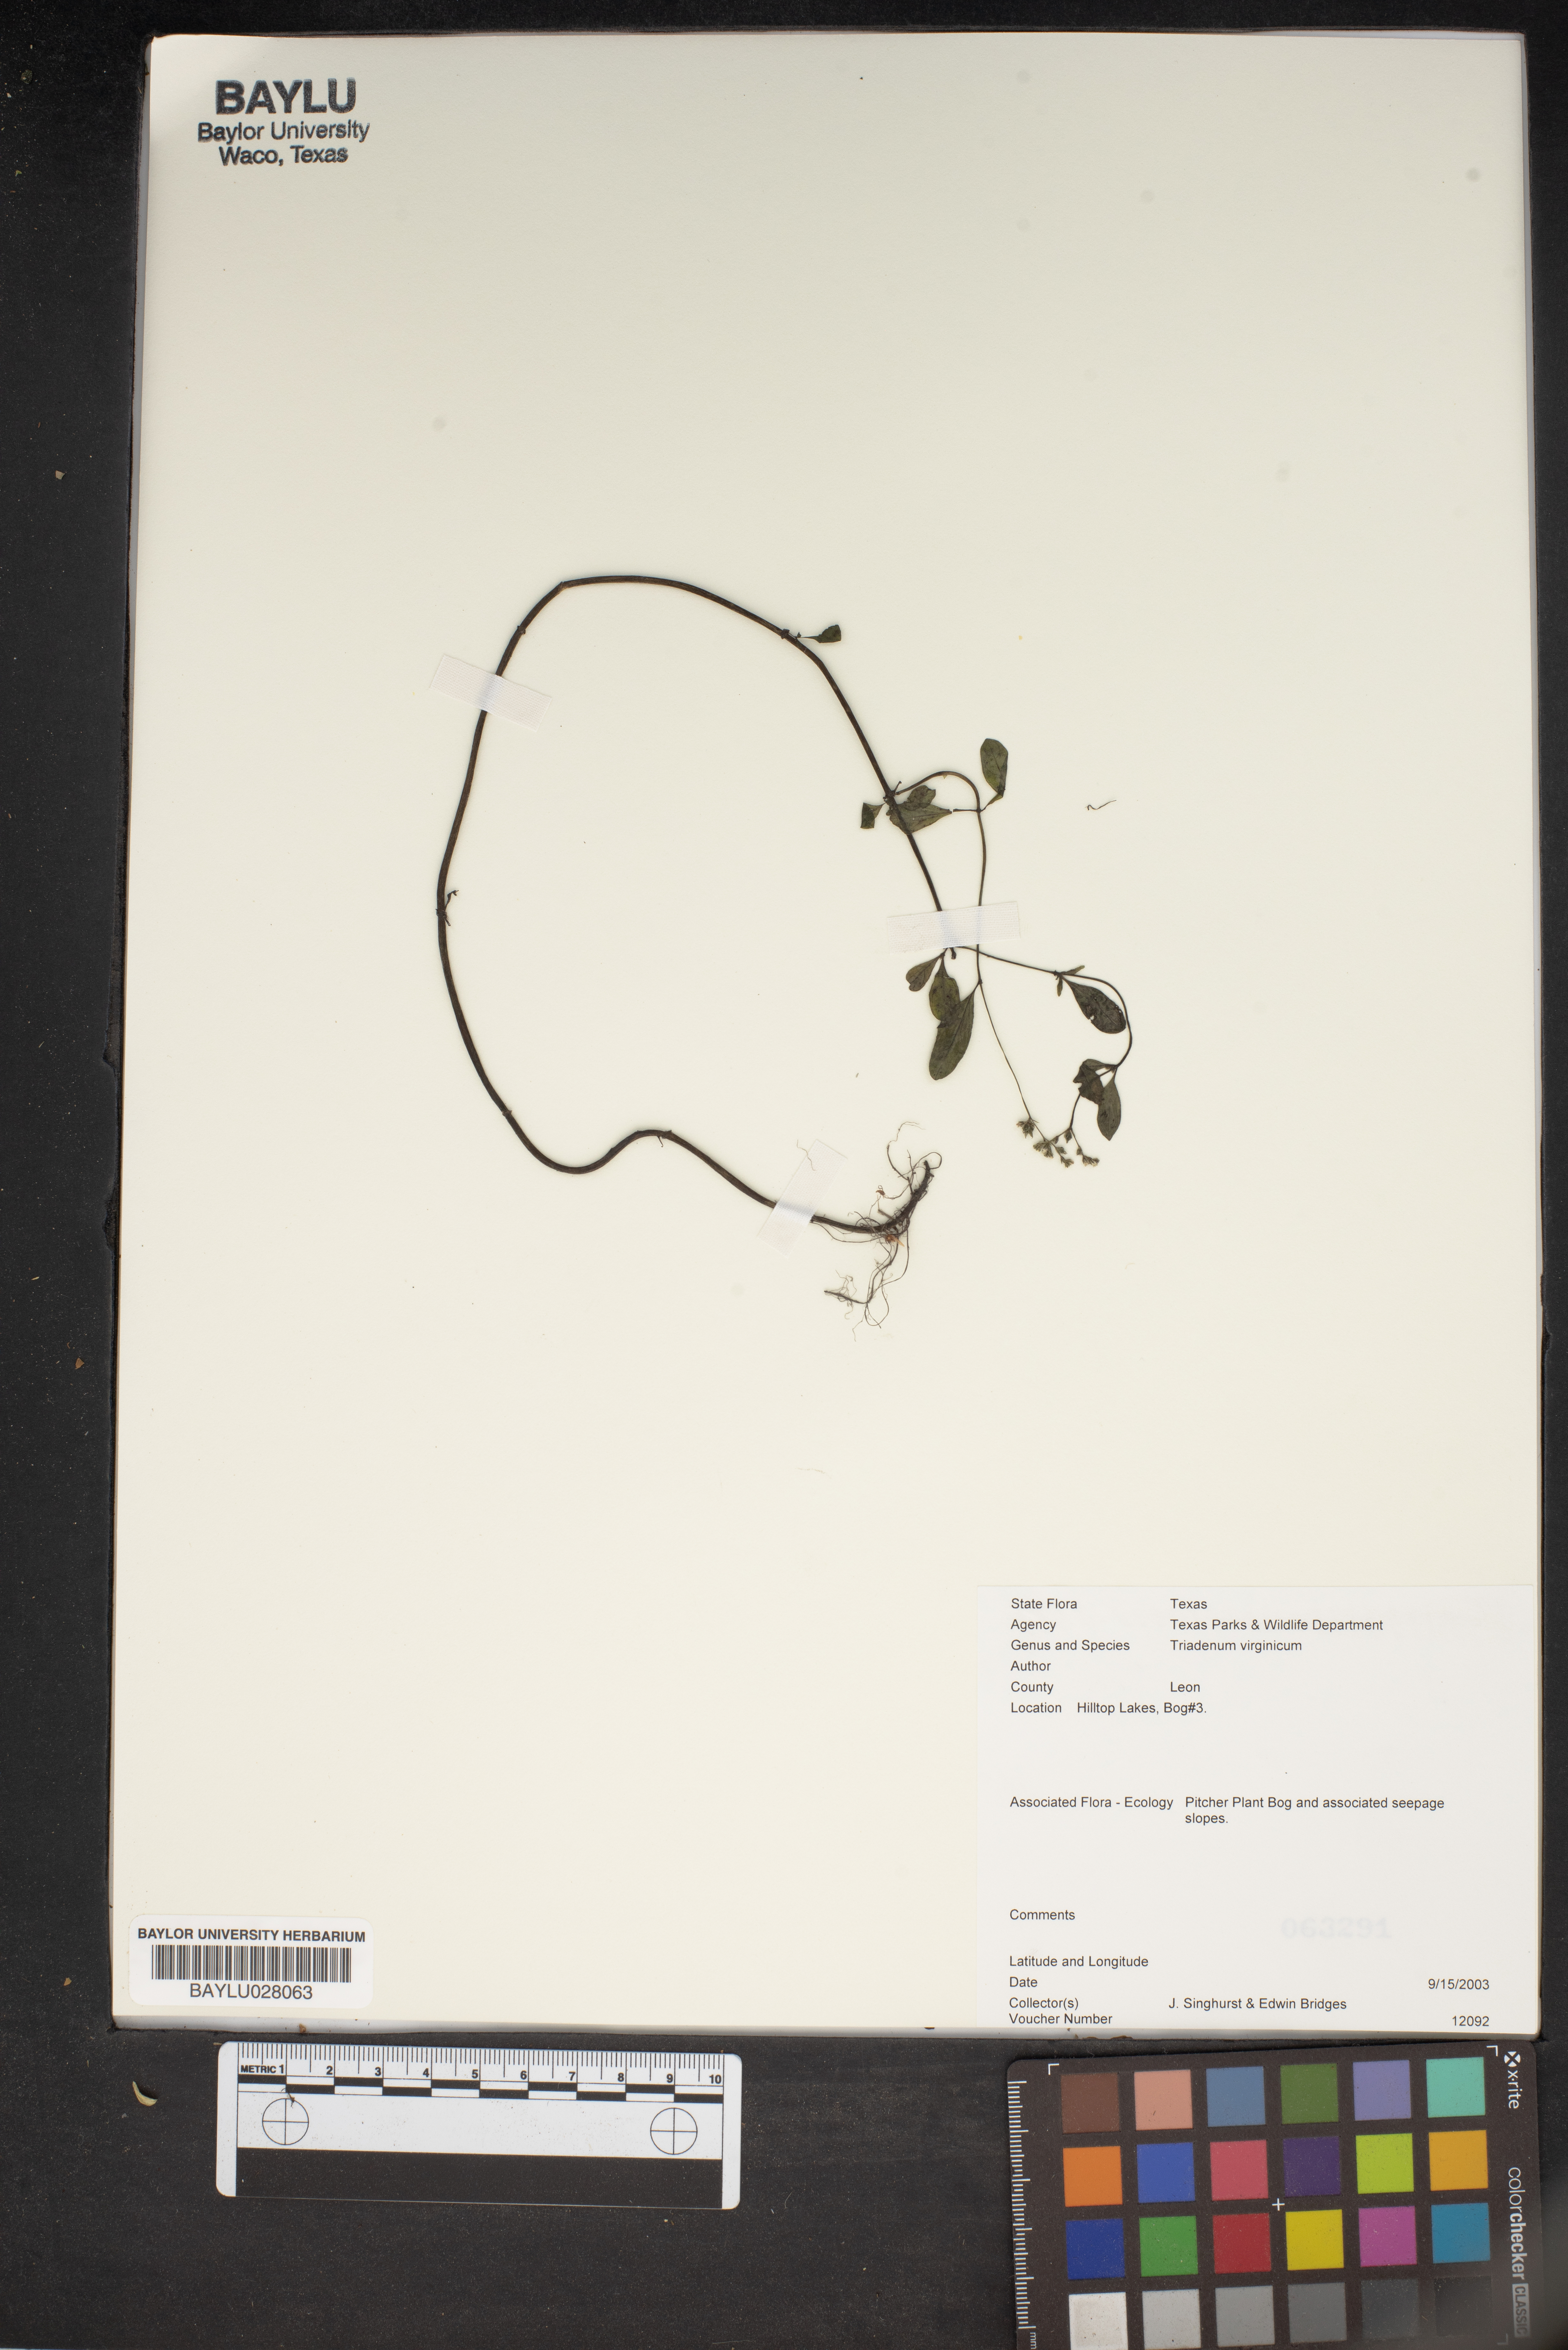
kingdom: Plantae
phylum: Tracheophyta
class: Magnoliopsida
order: Malpighiales
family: Hypericaceae
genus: Triadenum
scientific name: Triadenum virginicum
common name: Marsh st. john's-wort
